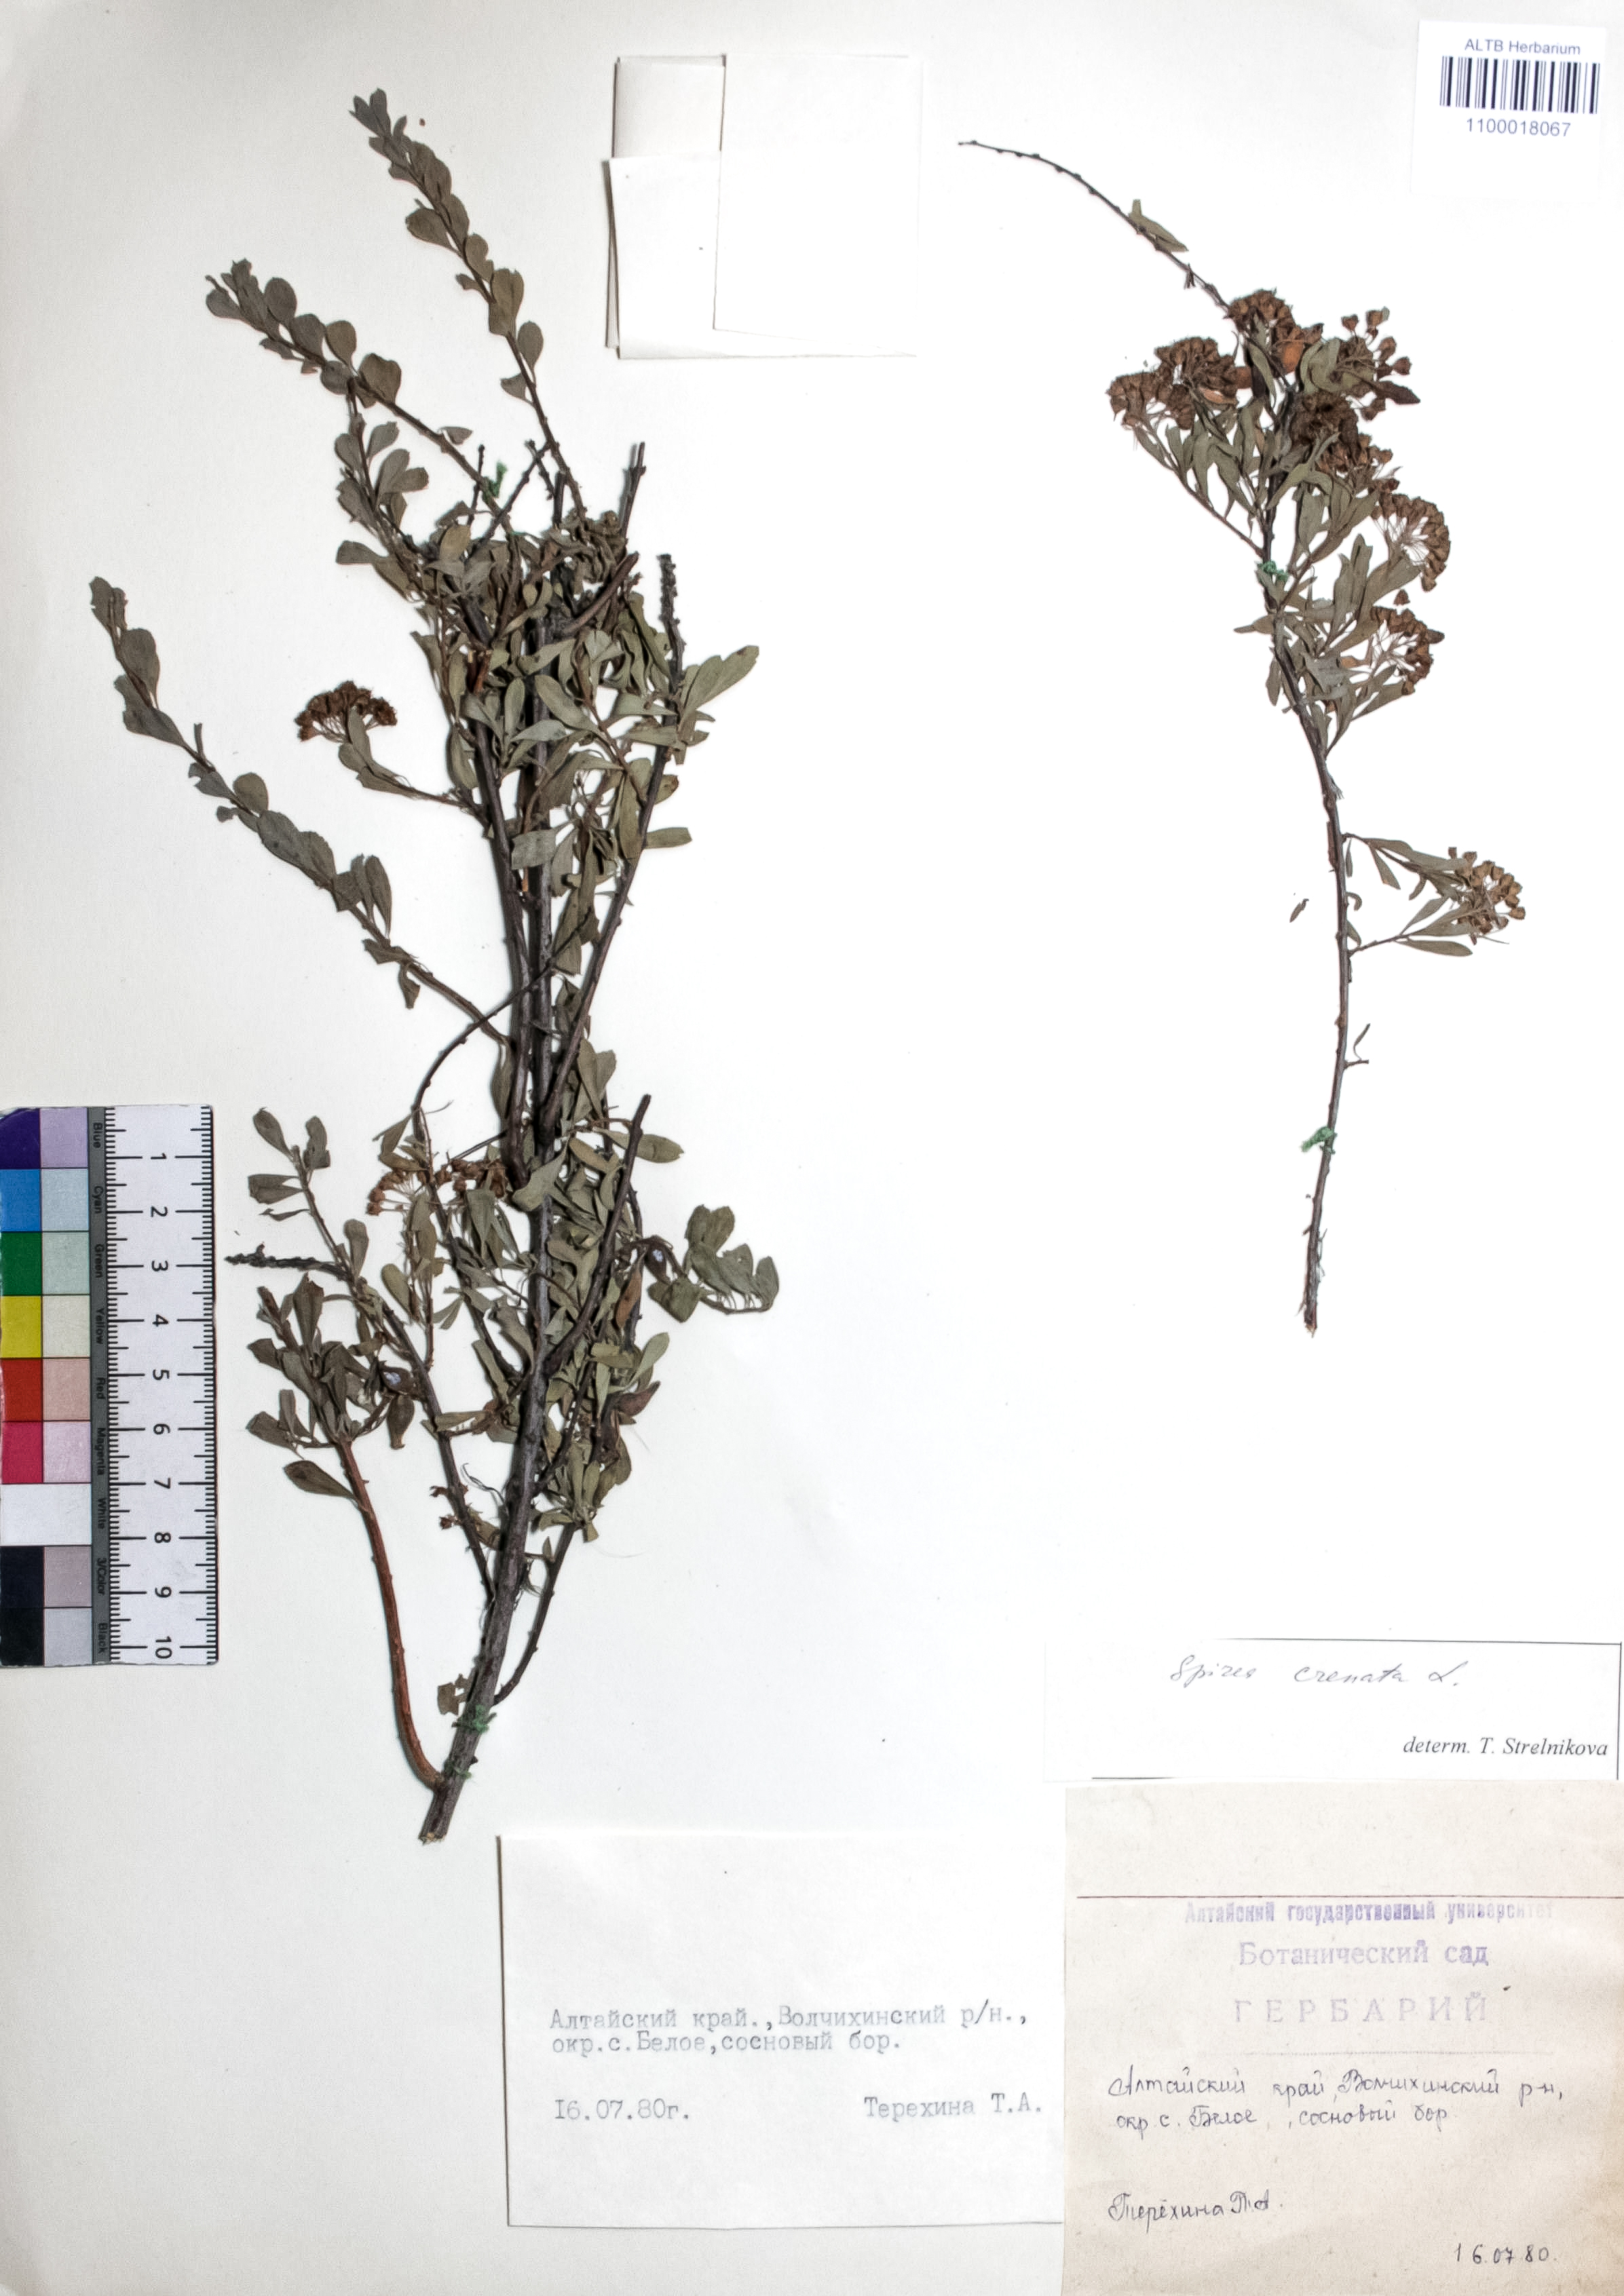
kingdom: Plantae
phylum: Tracheophyta
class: Magnoliopsida
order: Rosales
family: Rosaceae
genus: Spiraea
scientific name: Spiraea crenata
